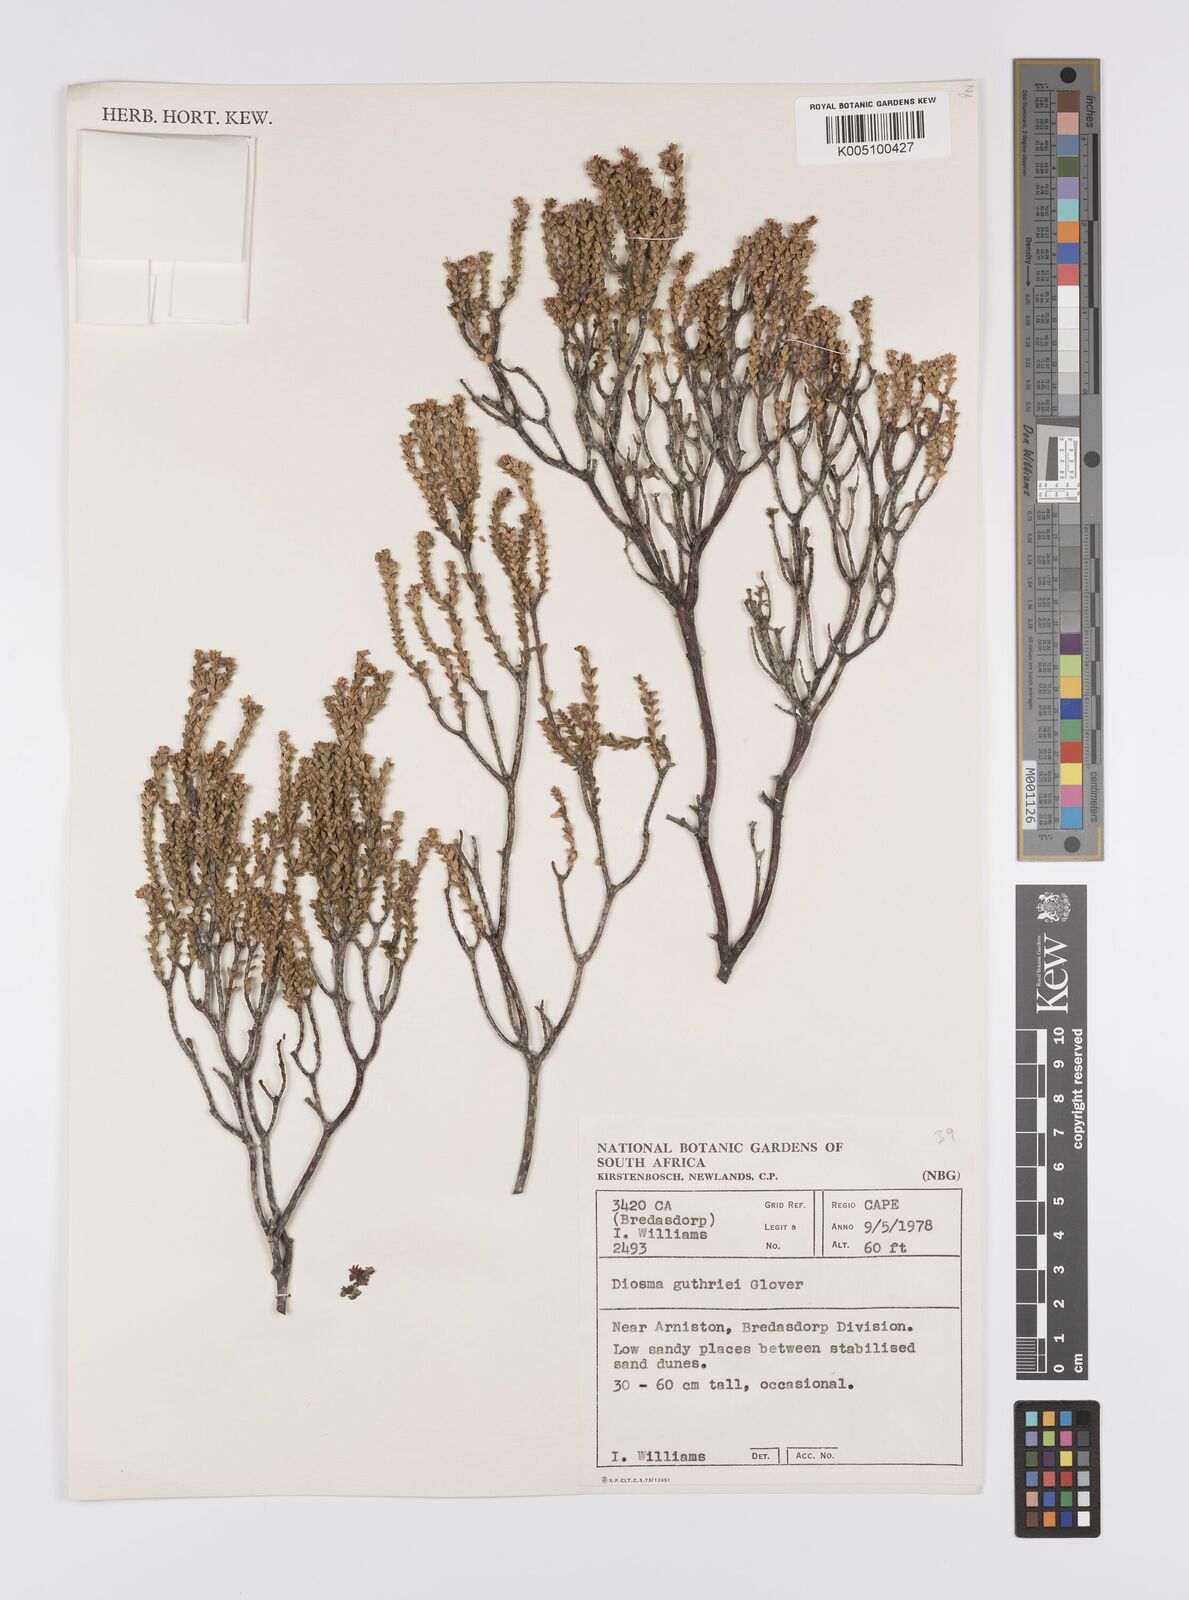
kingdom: Plantae
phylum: Tracheophyta
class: Magnoliopsida
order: Sapindales
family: Rutaceae
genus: Diosma
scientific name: Diosma guthriei
